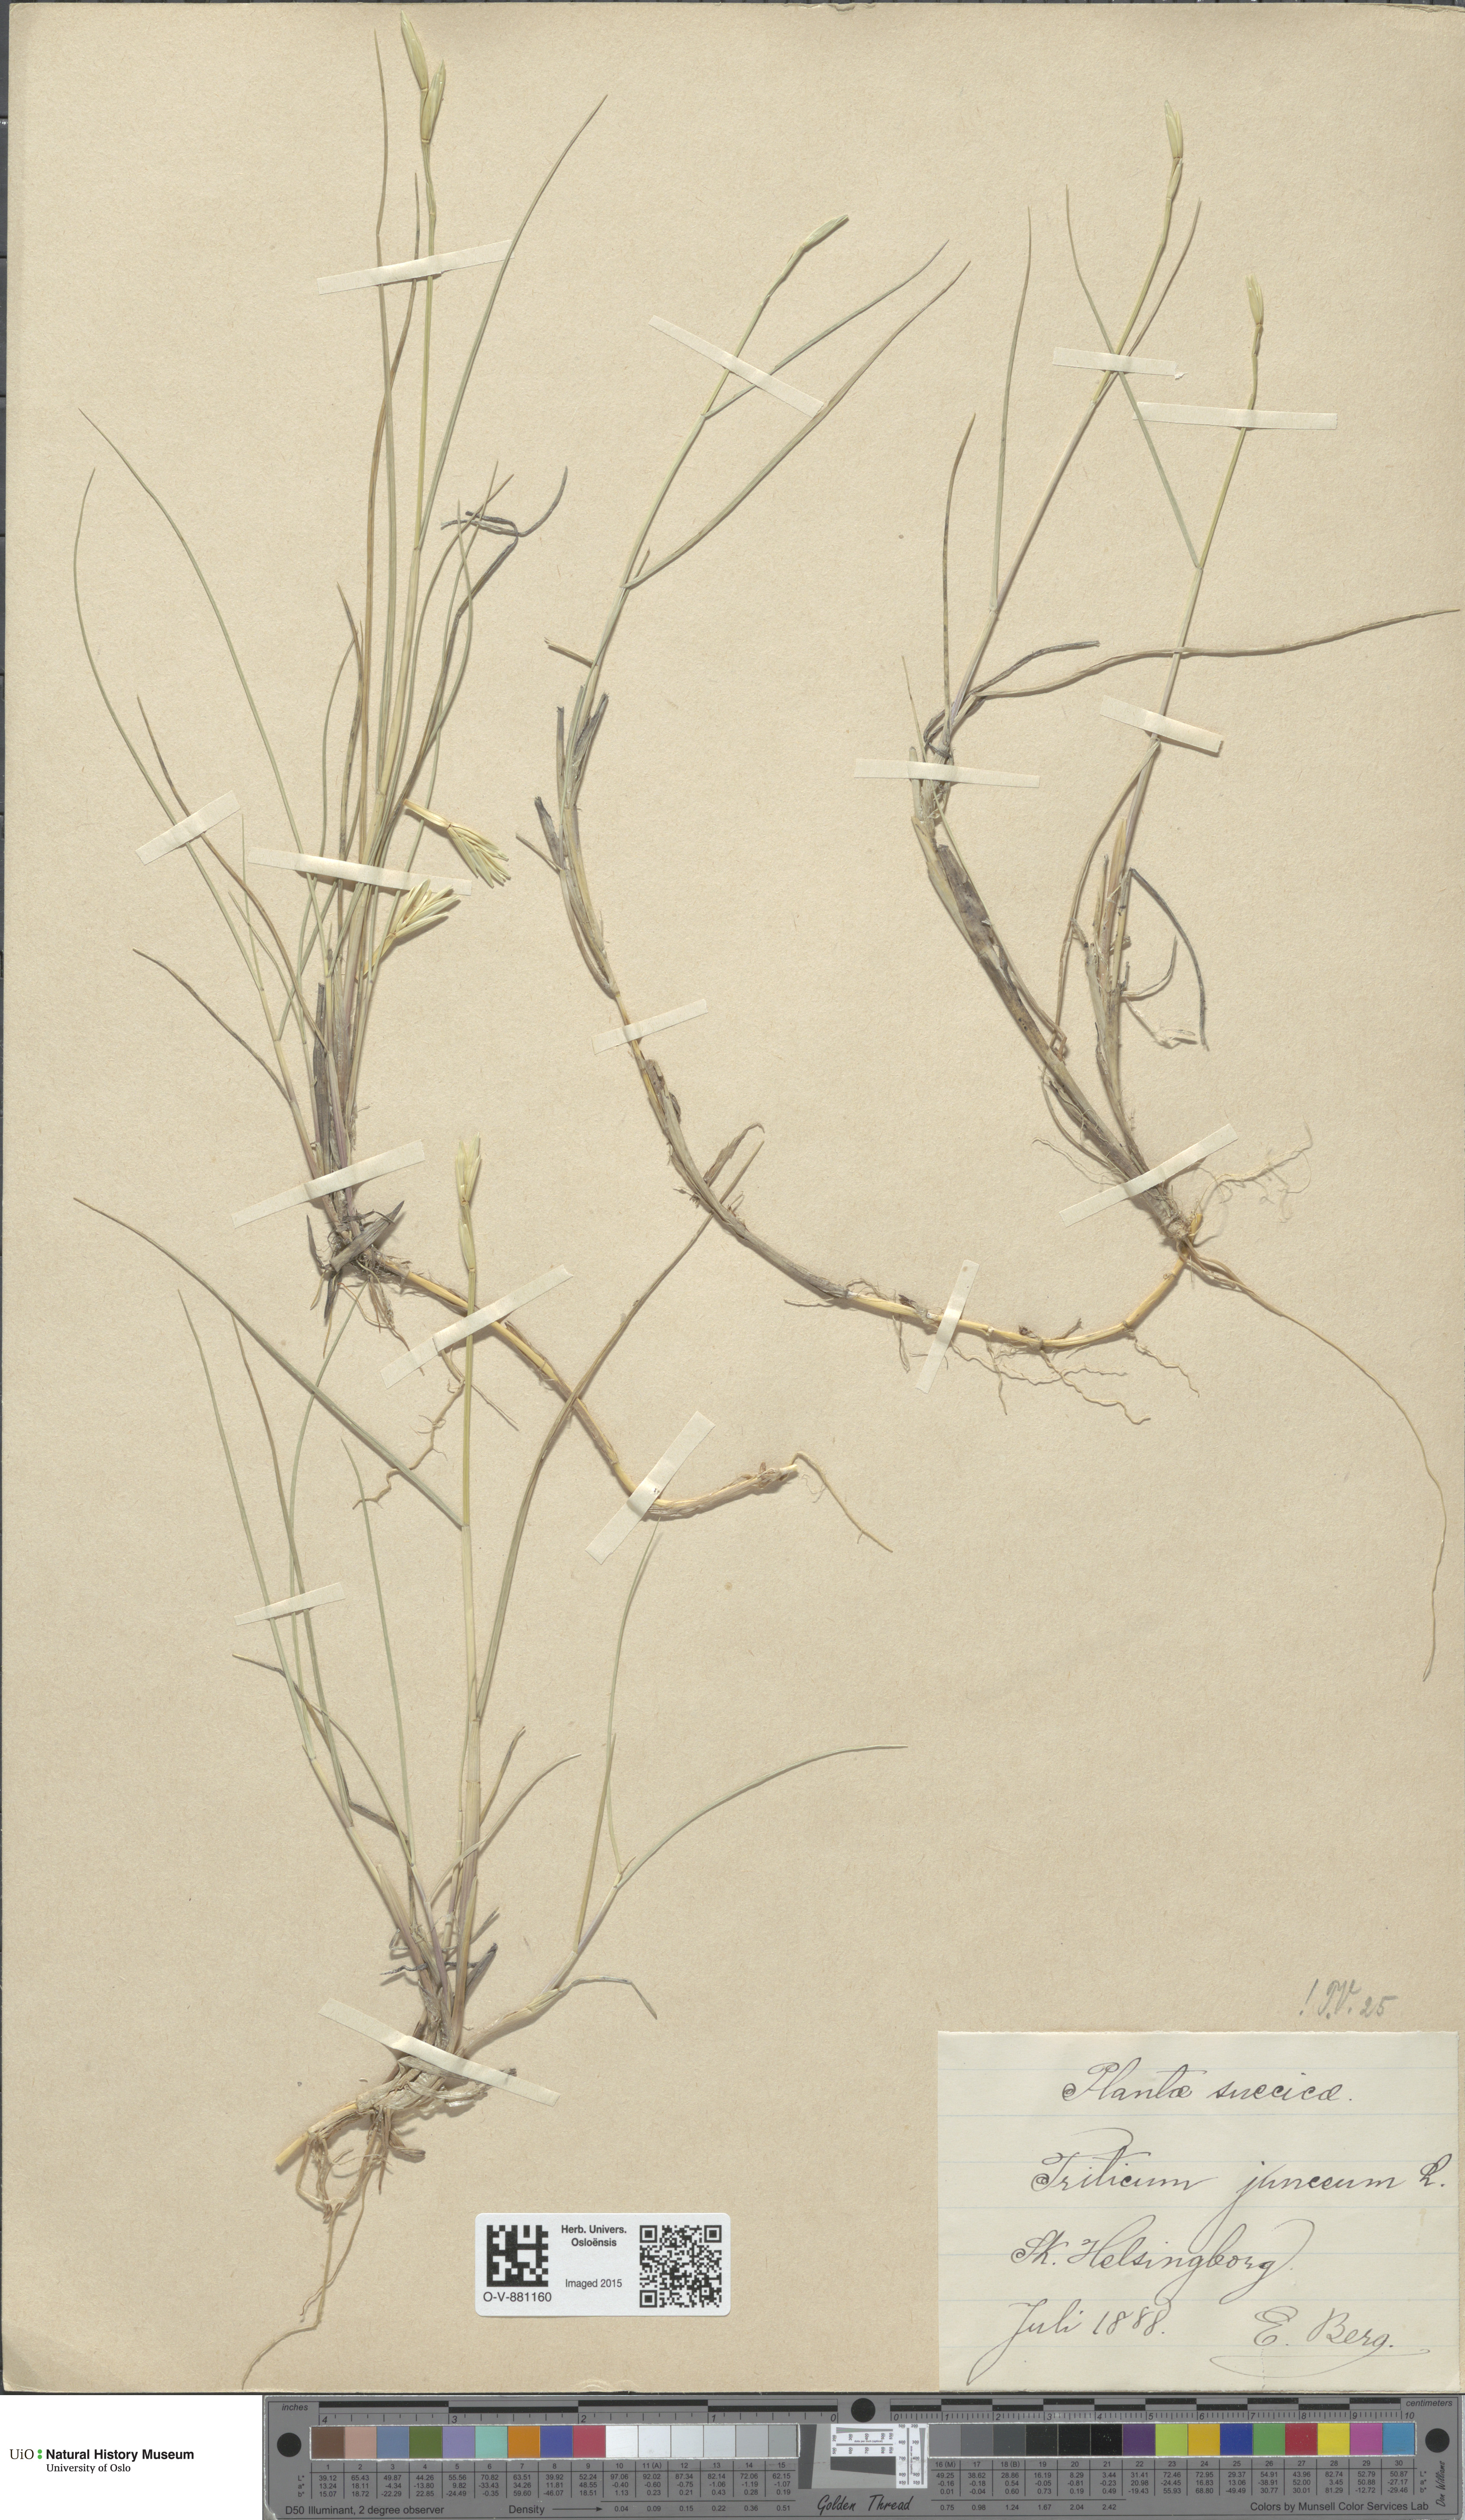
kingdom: Plantae
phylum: Tracheophyta
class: Liliopsida
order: Poales
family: Poaceae
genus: Thinopyrum
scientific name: Thinopyrum junceum
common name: Russian wheatgrass
